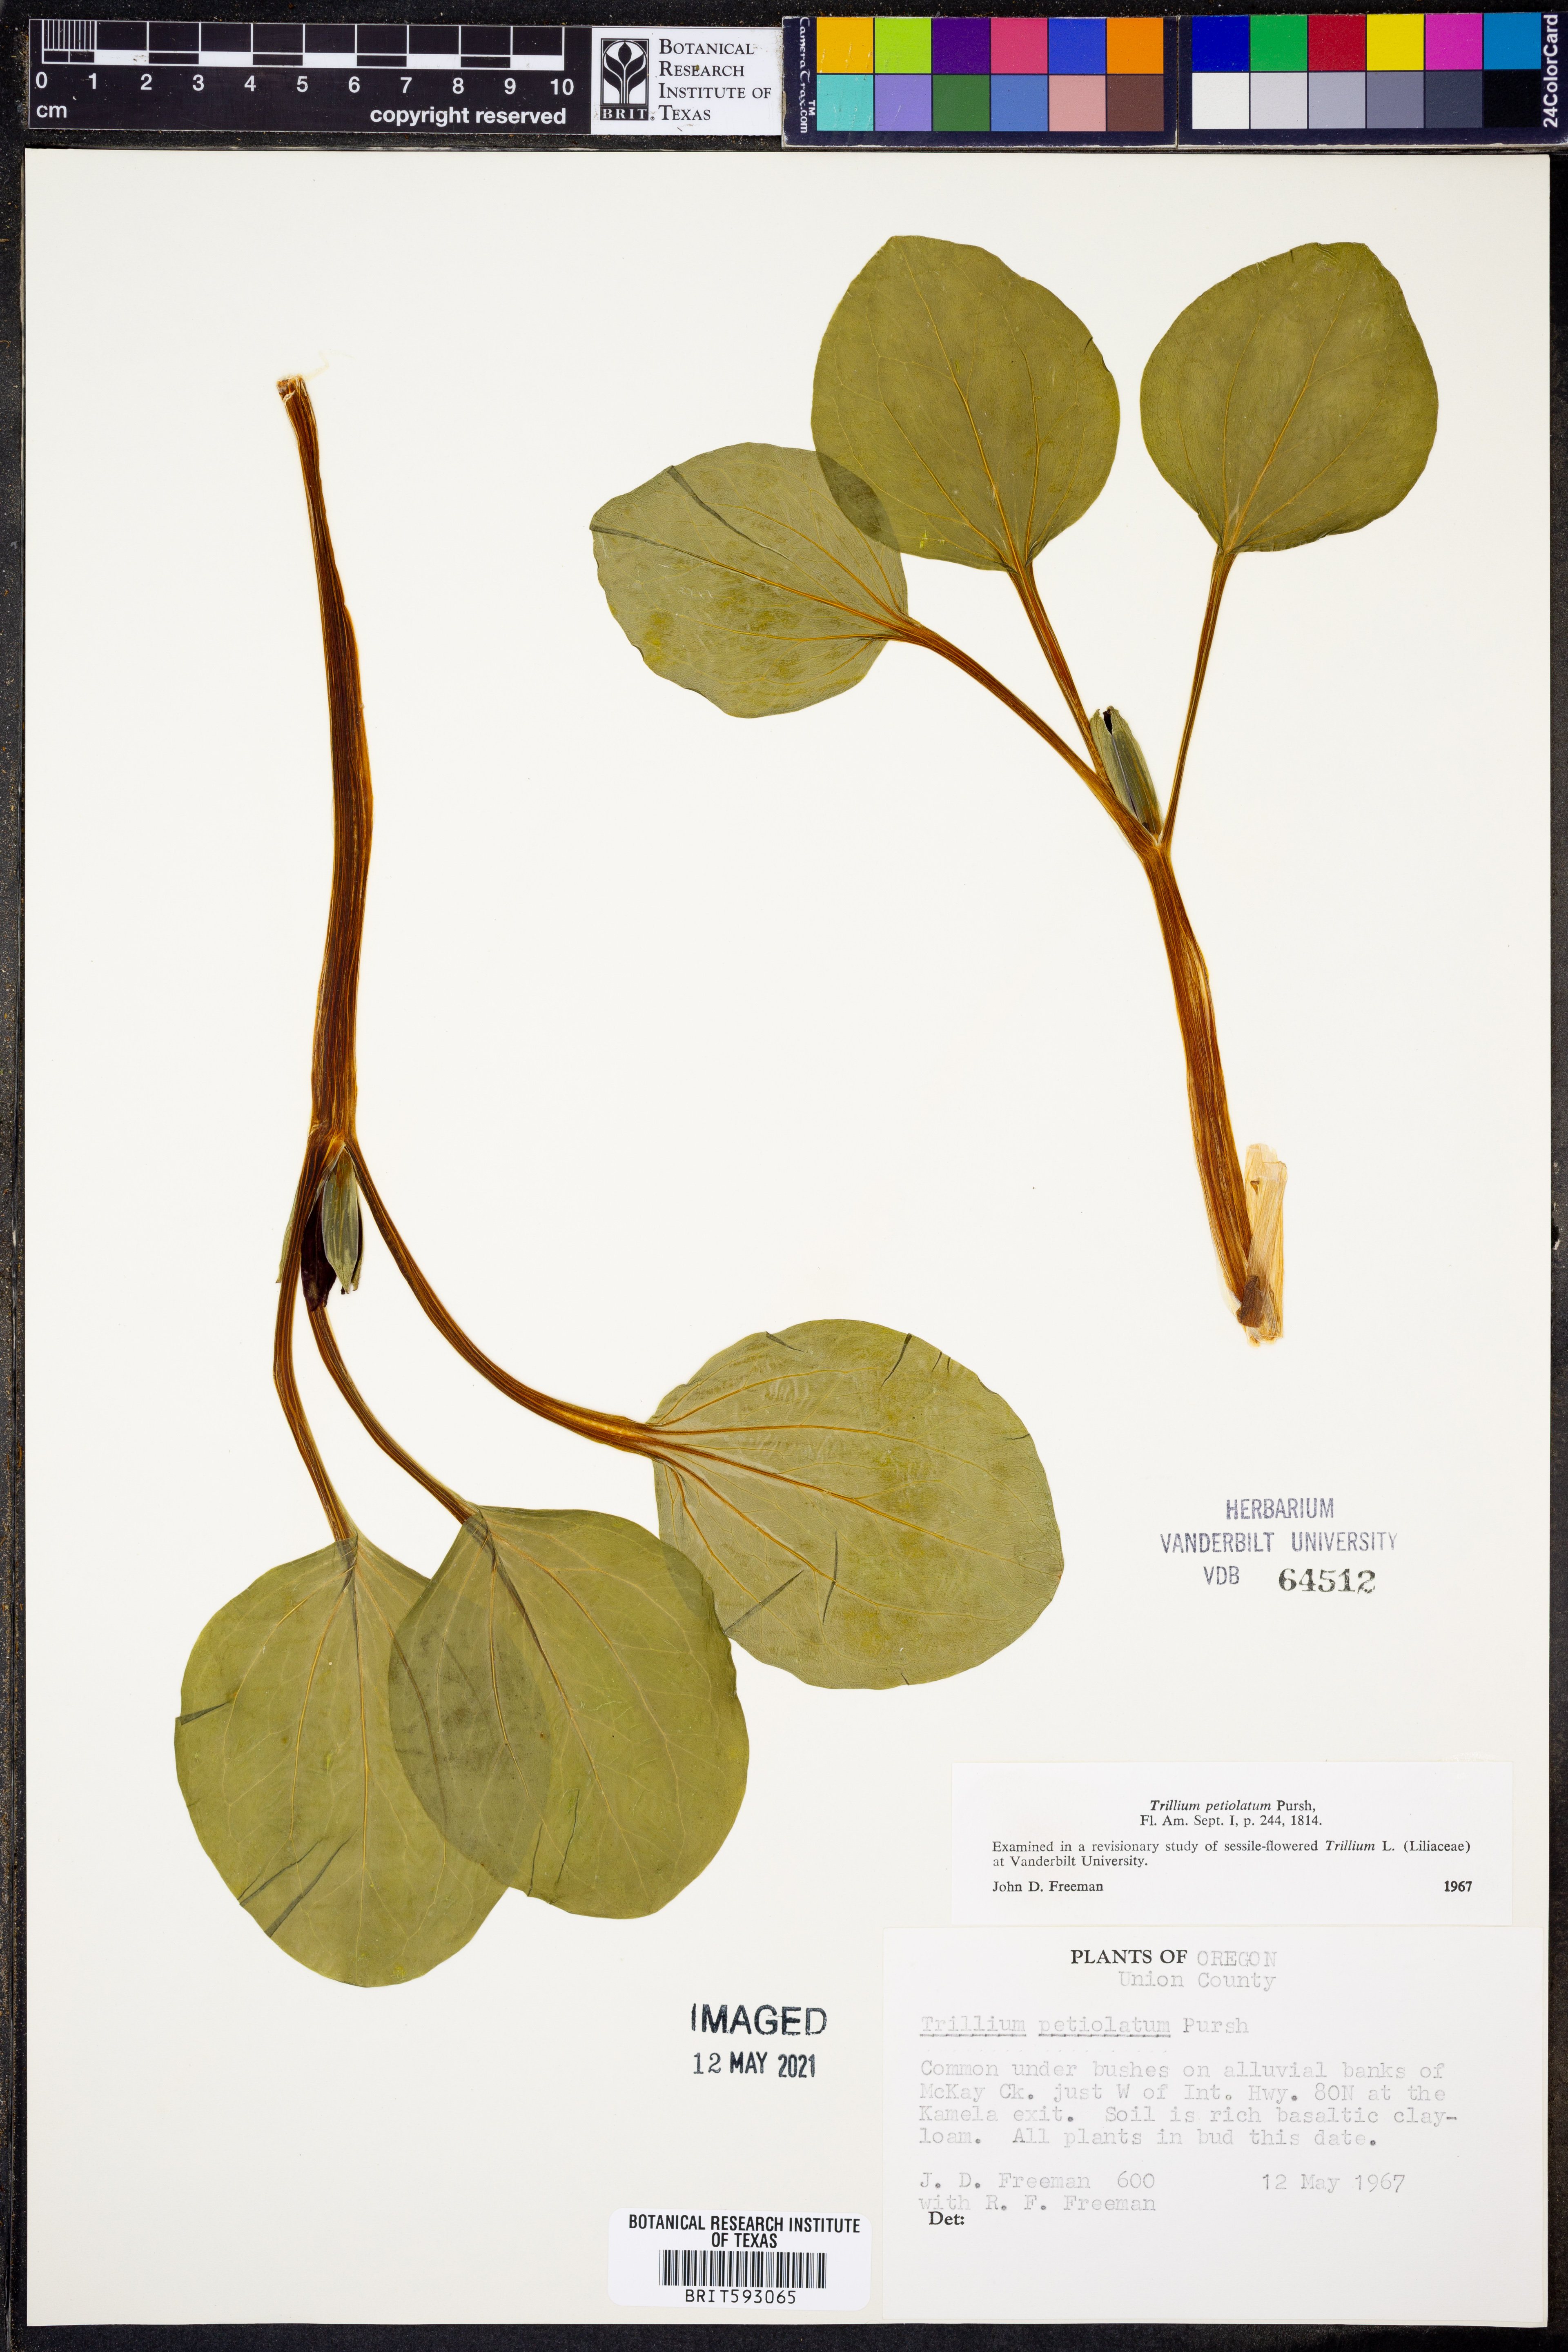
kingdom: Plantae
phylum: Tracheophyta
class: Liliopsida
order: Liliales
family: Melanthiaceae
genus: Trillium
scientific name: Trillium petiolatum
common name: Idaho trillium
